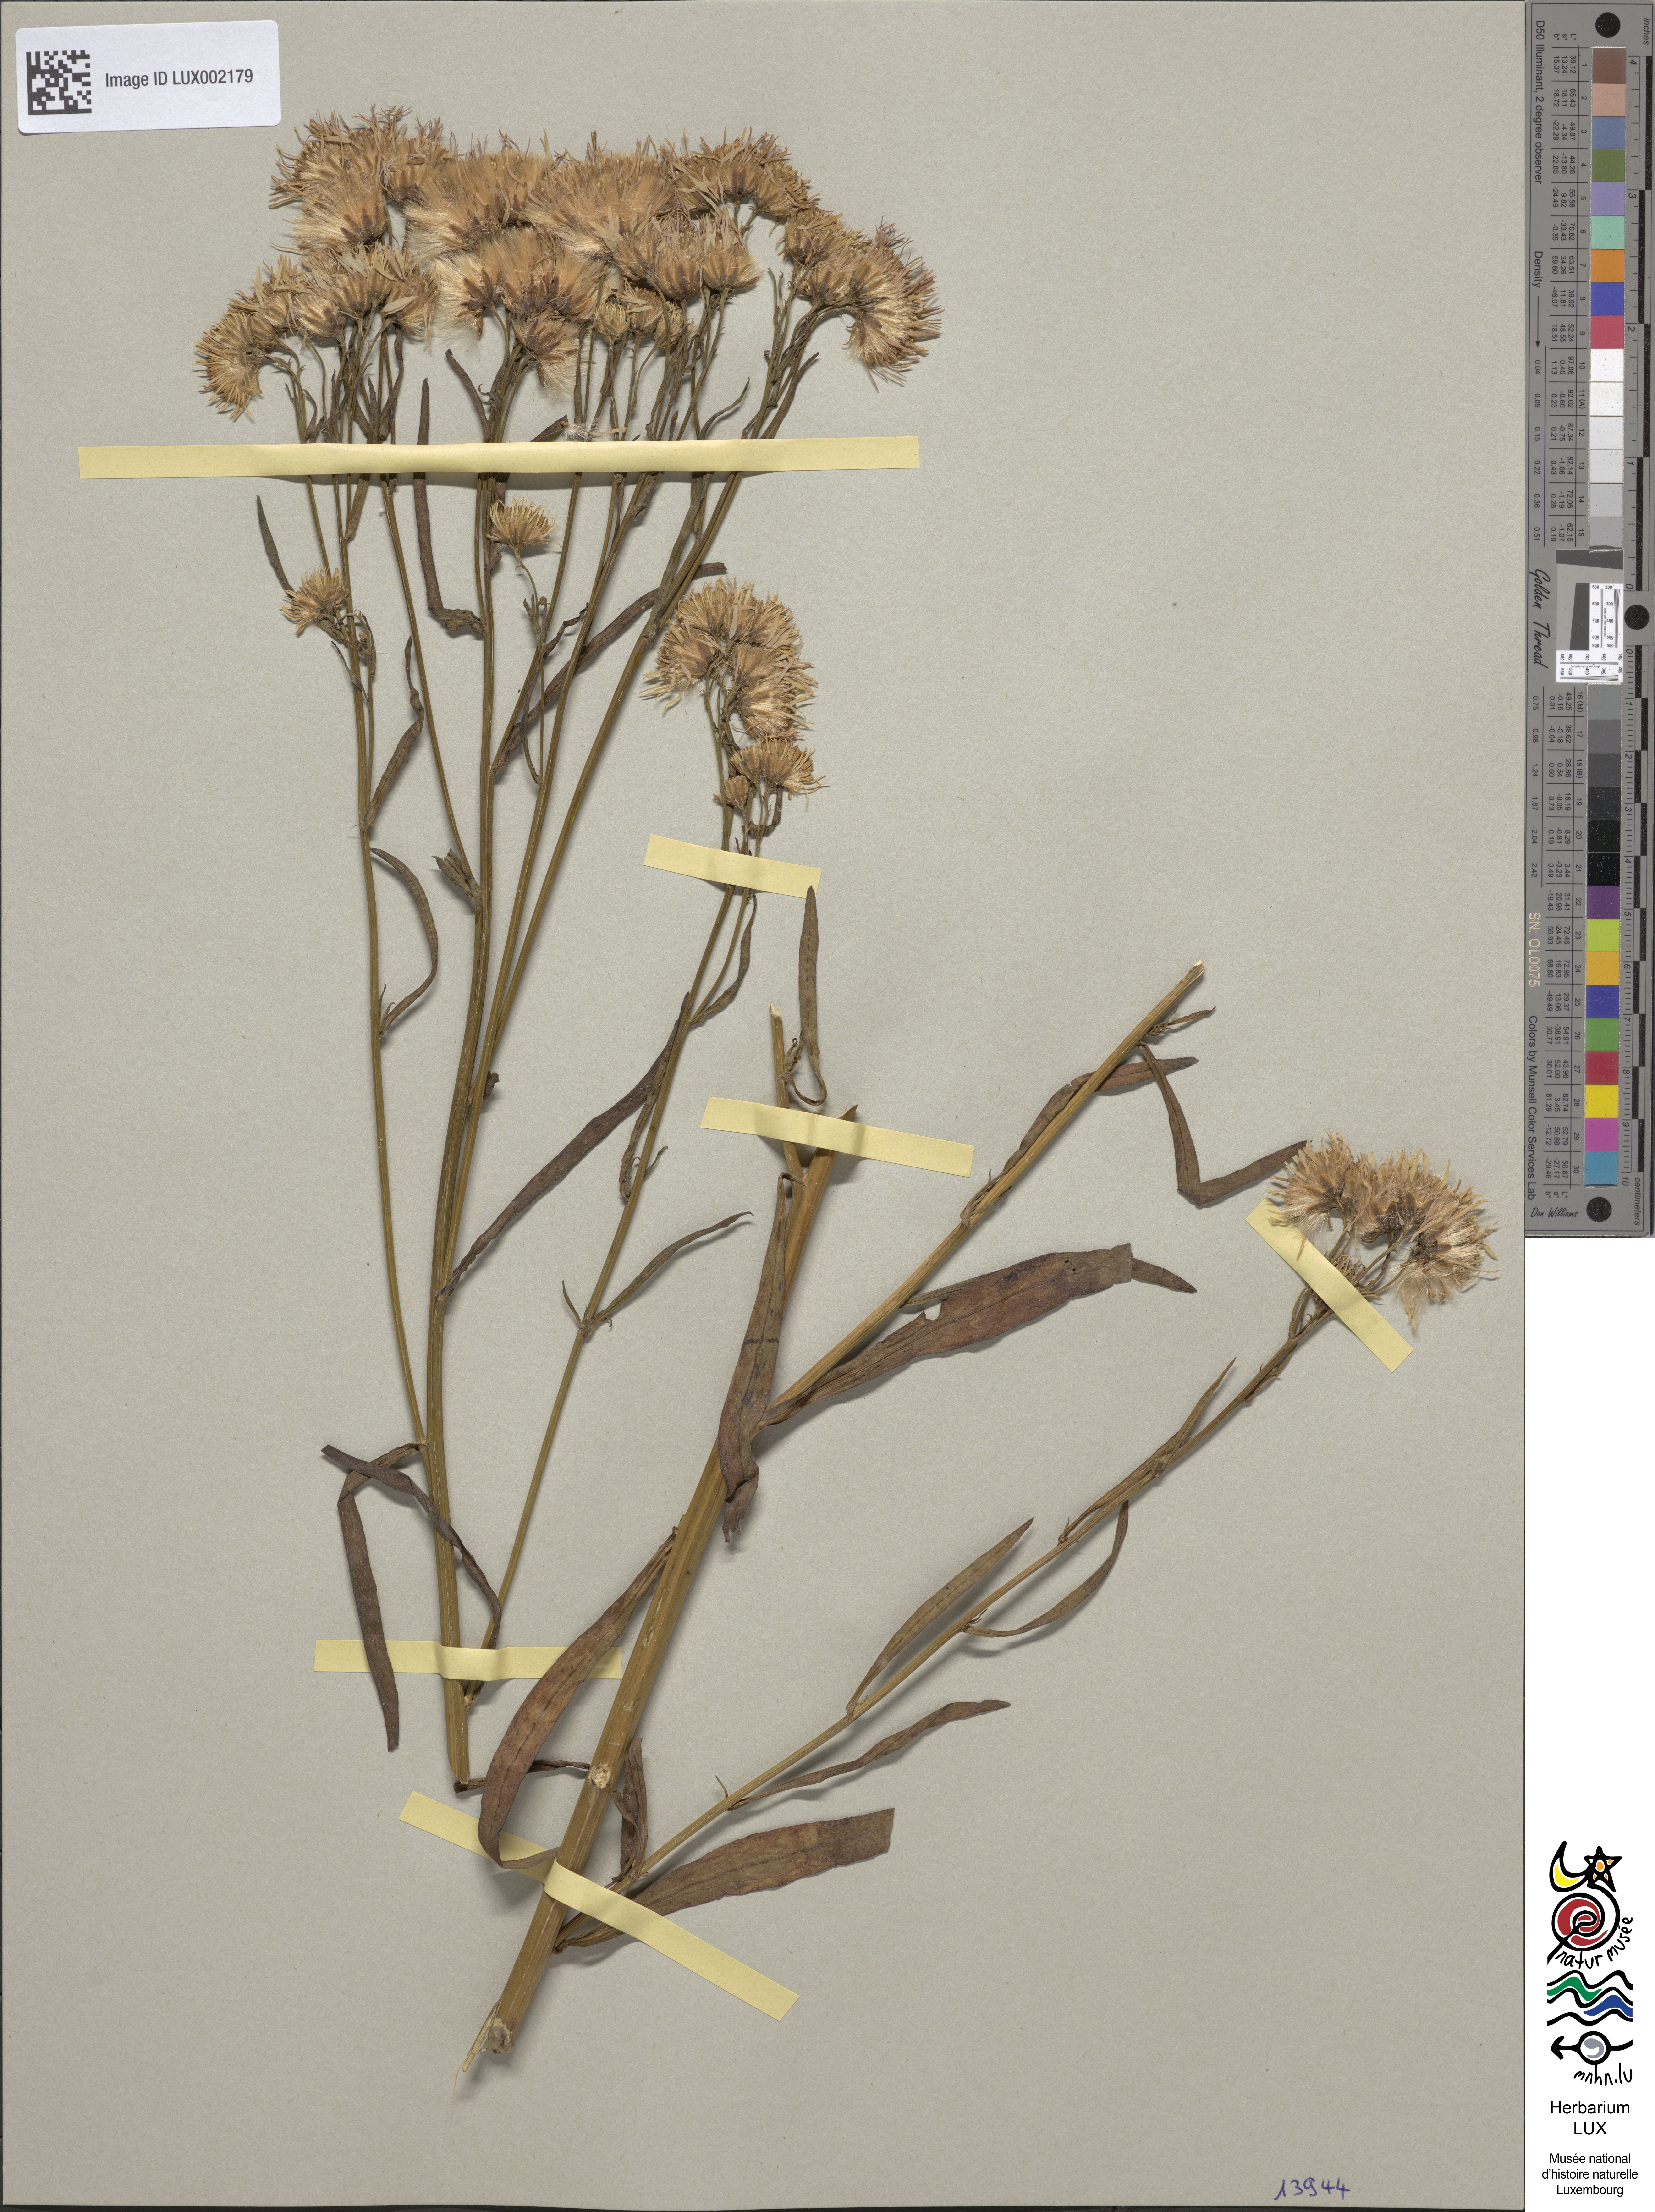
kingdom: Plantae
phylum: Tracheophyta
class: Magnoliopsida
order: Asterales
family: Asteraceae
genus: Tripolium
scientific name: Tripolium pannonicum
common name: Sea aster
